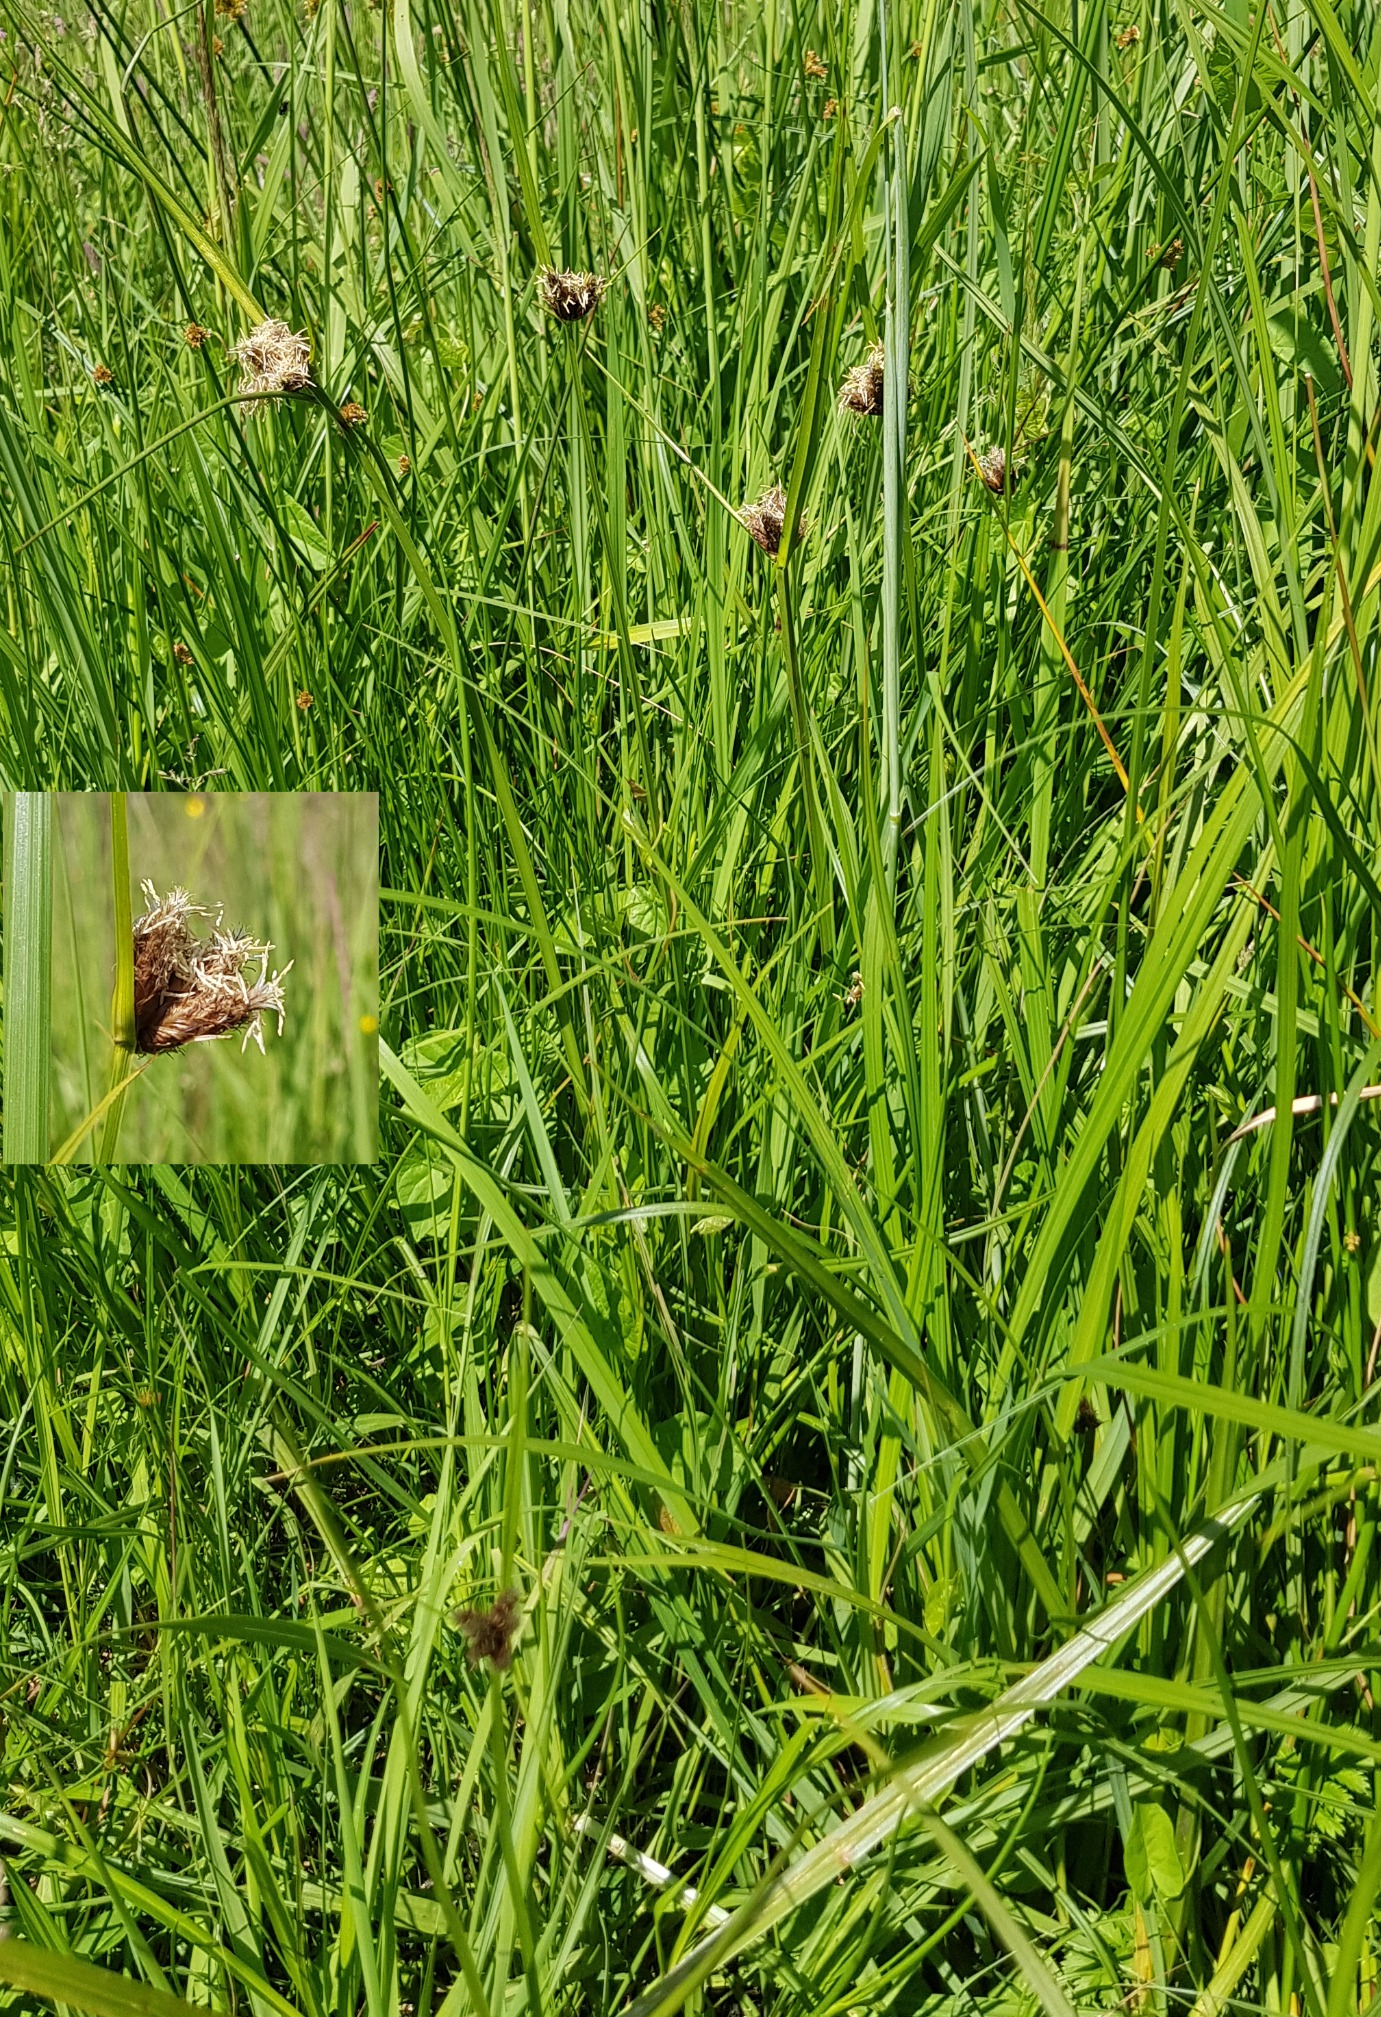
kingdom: Plantae
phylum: Tracheophyta
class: Liliopsida
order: Poales
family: Cyperaceae
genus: Bolboschoenus
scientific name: Bolboschoenus maritimus
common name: Strand-kogleaks
